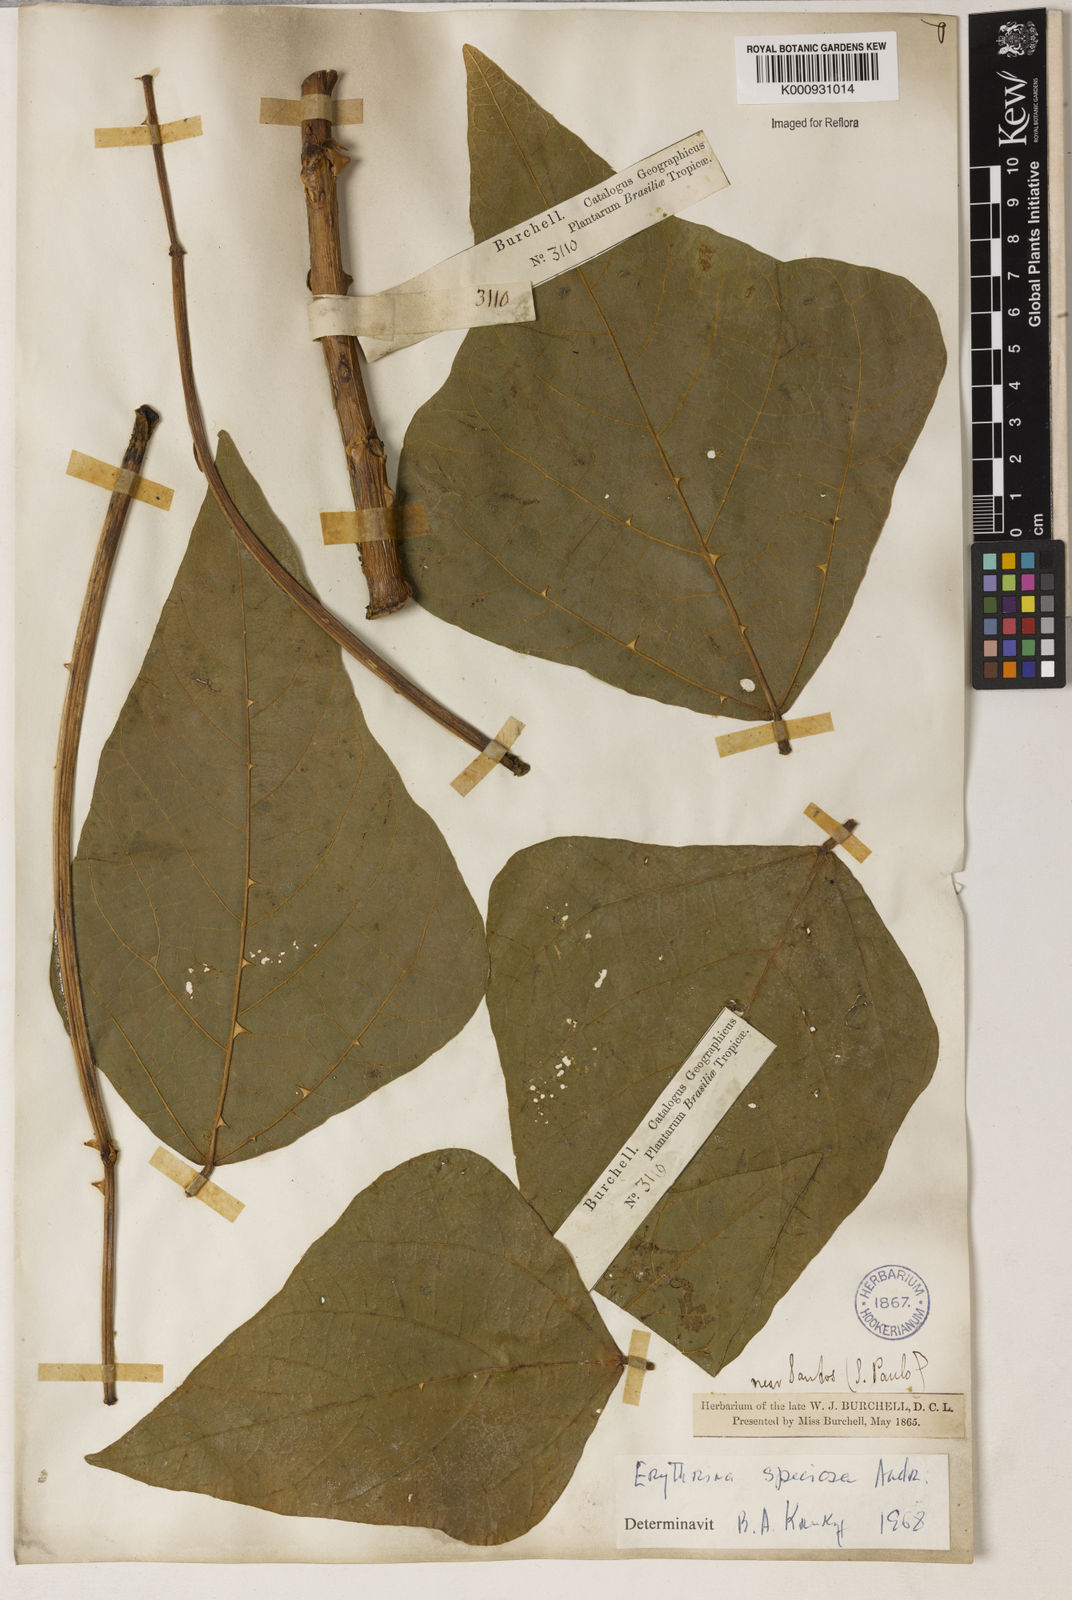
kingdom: Plantae
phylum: Tracheophyta
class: Magnoliopsida
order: Fabales
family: Fabaceae
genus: Erythrina
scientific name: Erythrina speciosa
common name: Coral tree
